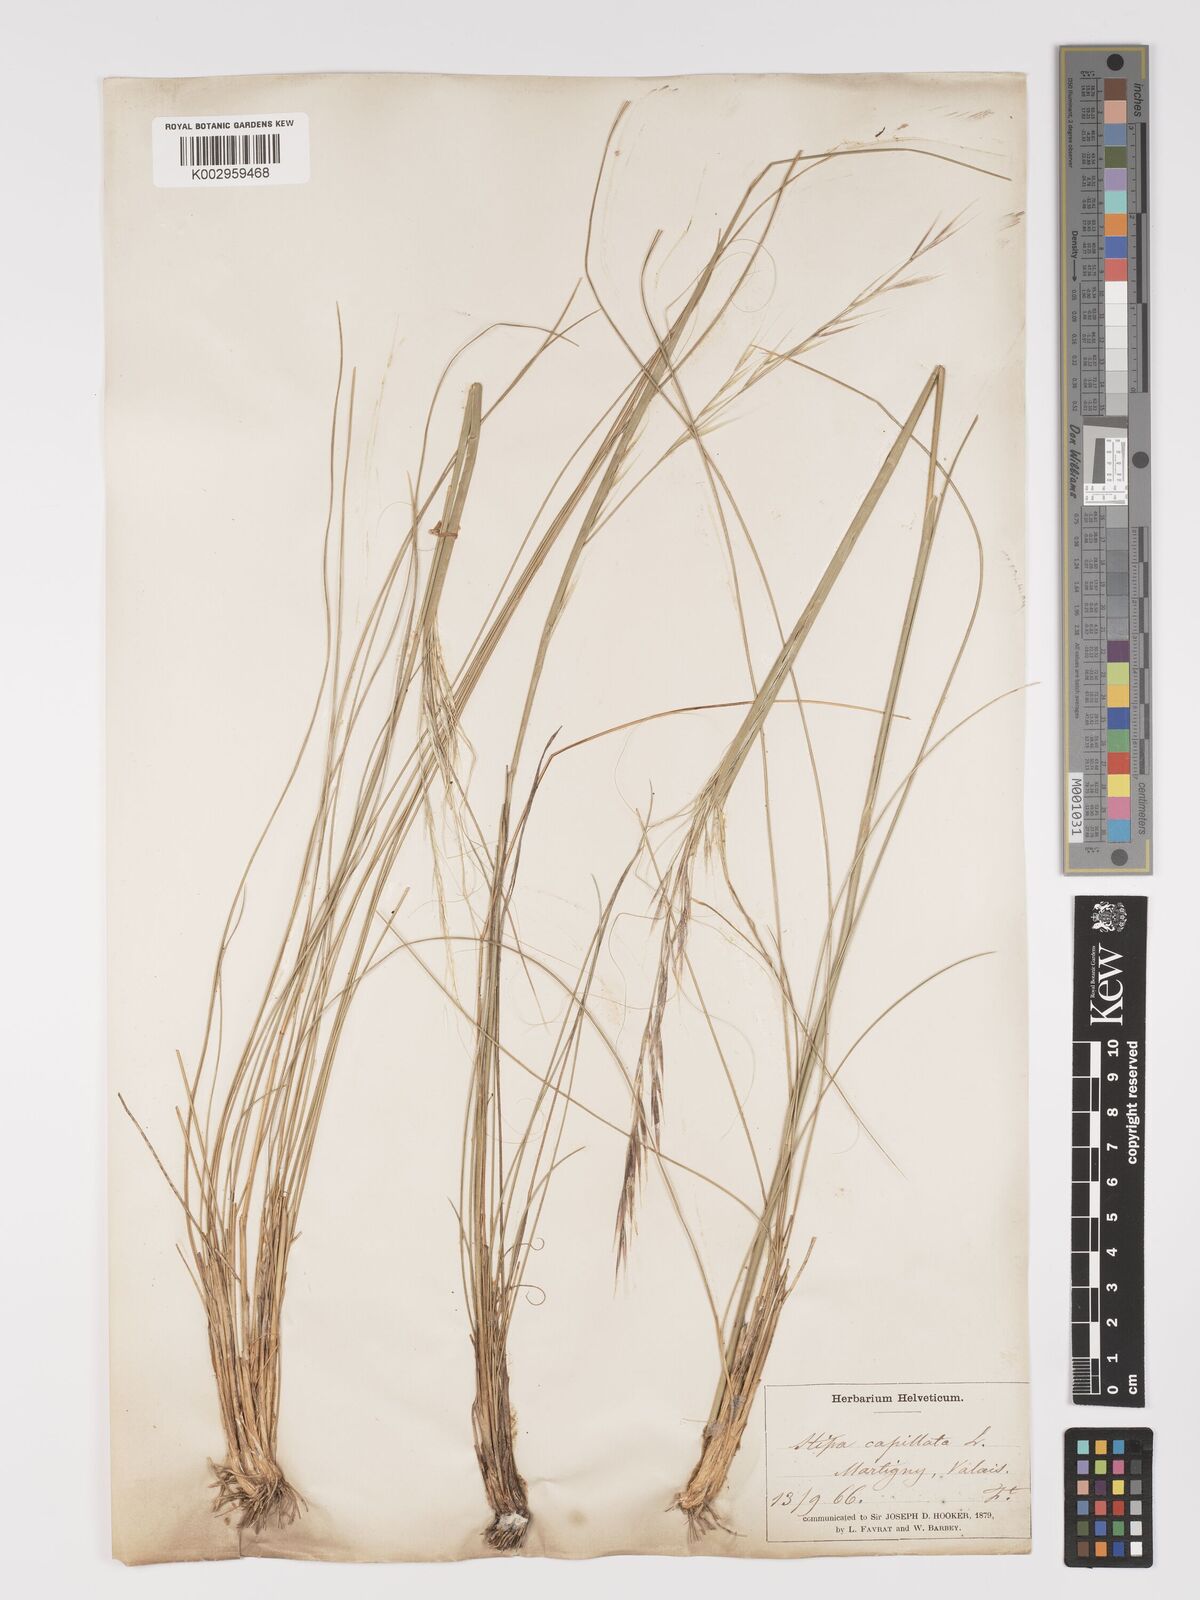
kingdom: Plantae
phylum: Tracheophyta
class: Liliopsida
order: Poales
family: Poaceae
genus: Stipa
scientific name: Stipa capillata
